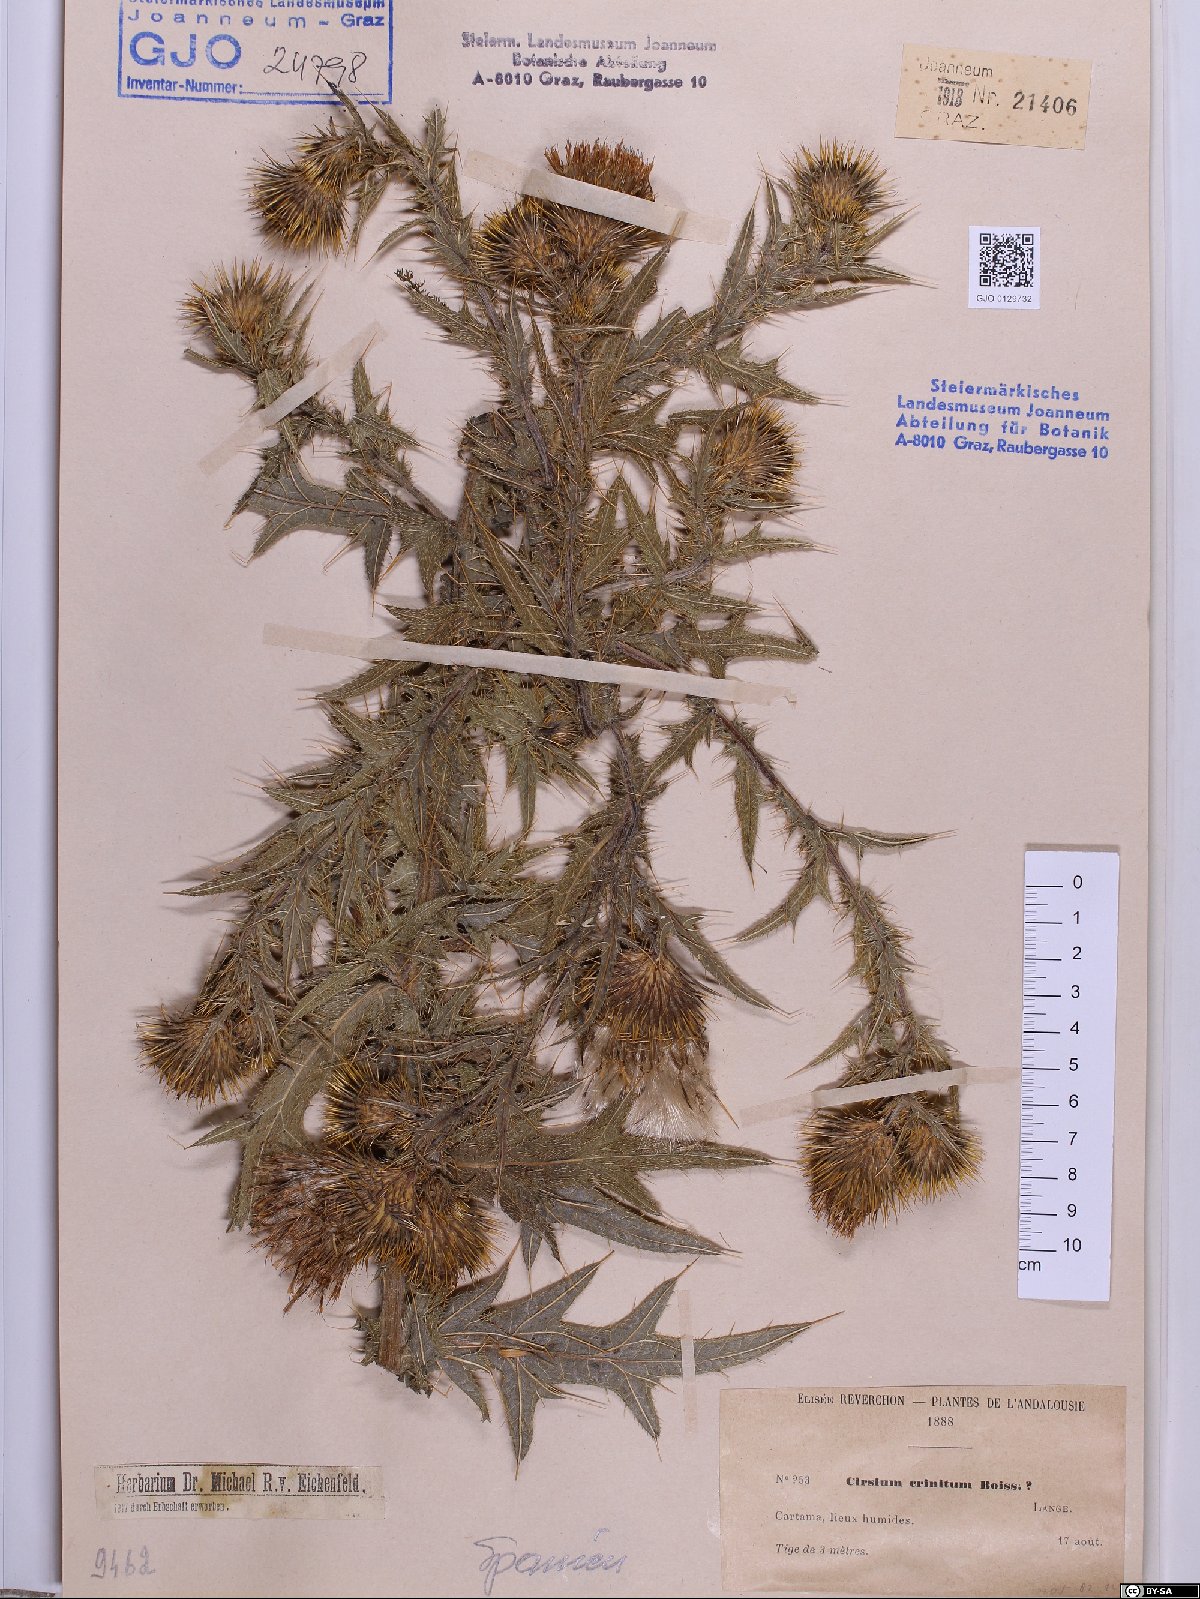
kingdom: Plantae
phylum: Tracheophyta
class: Magnoliopsida
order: Asterales
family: Asteraceae
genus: Cirsium
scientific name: Cirsium vulgare
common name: Bull thistle
